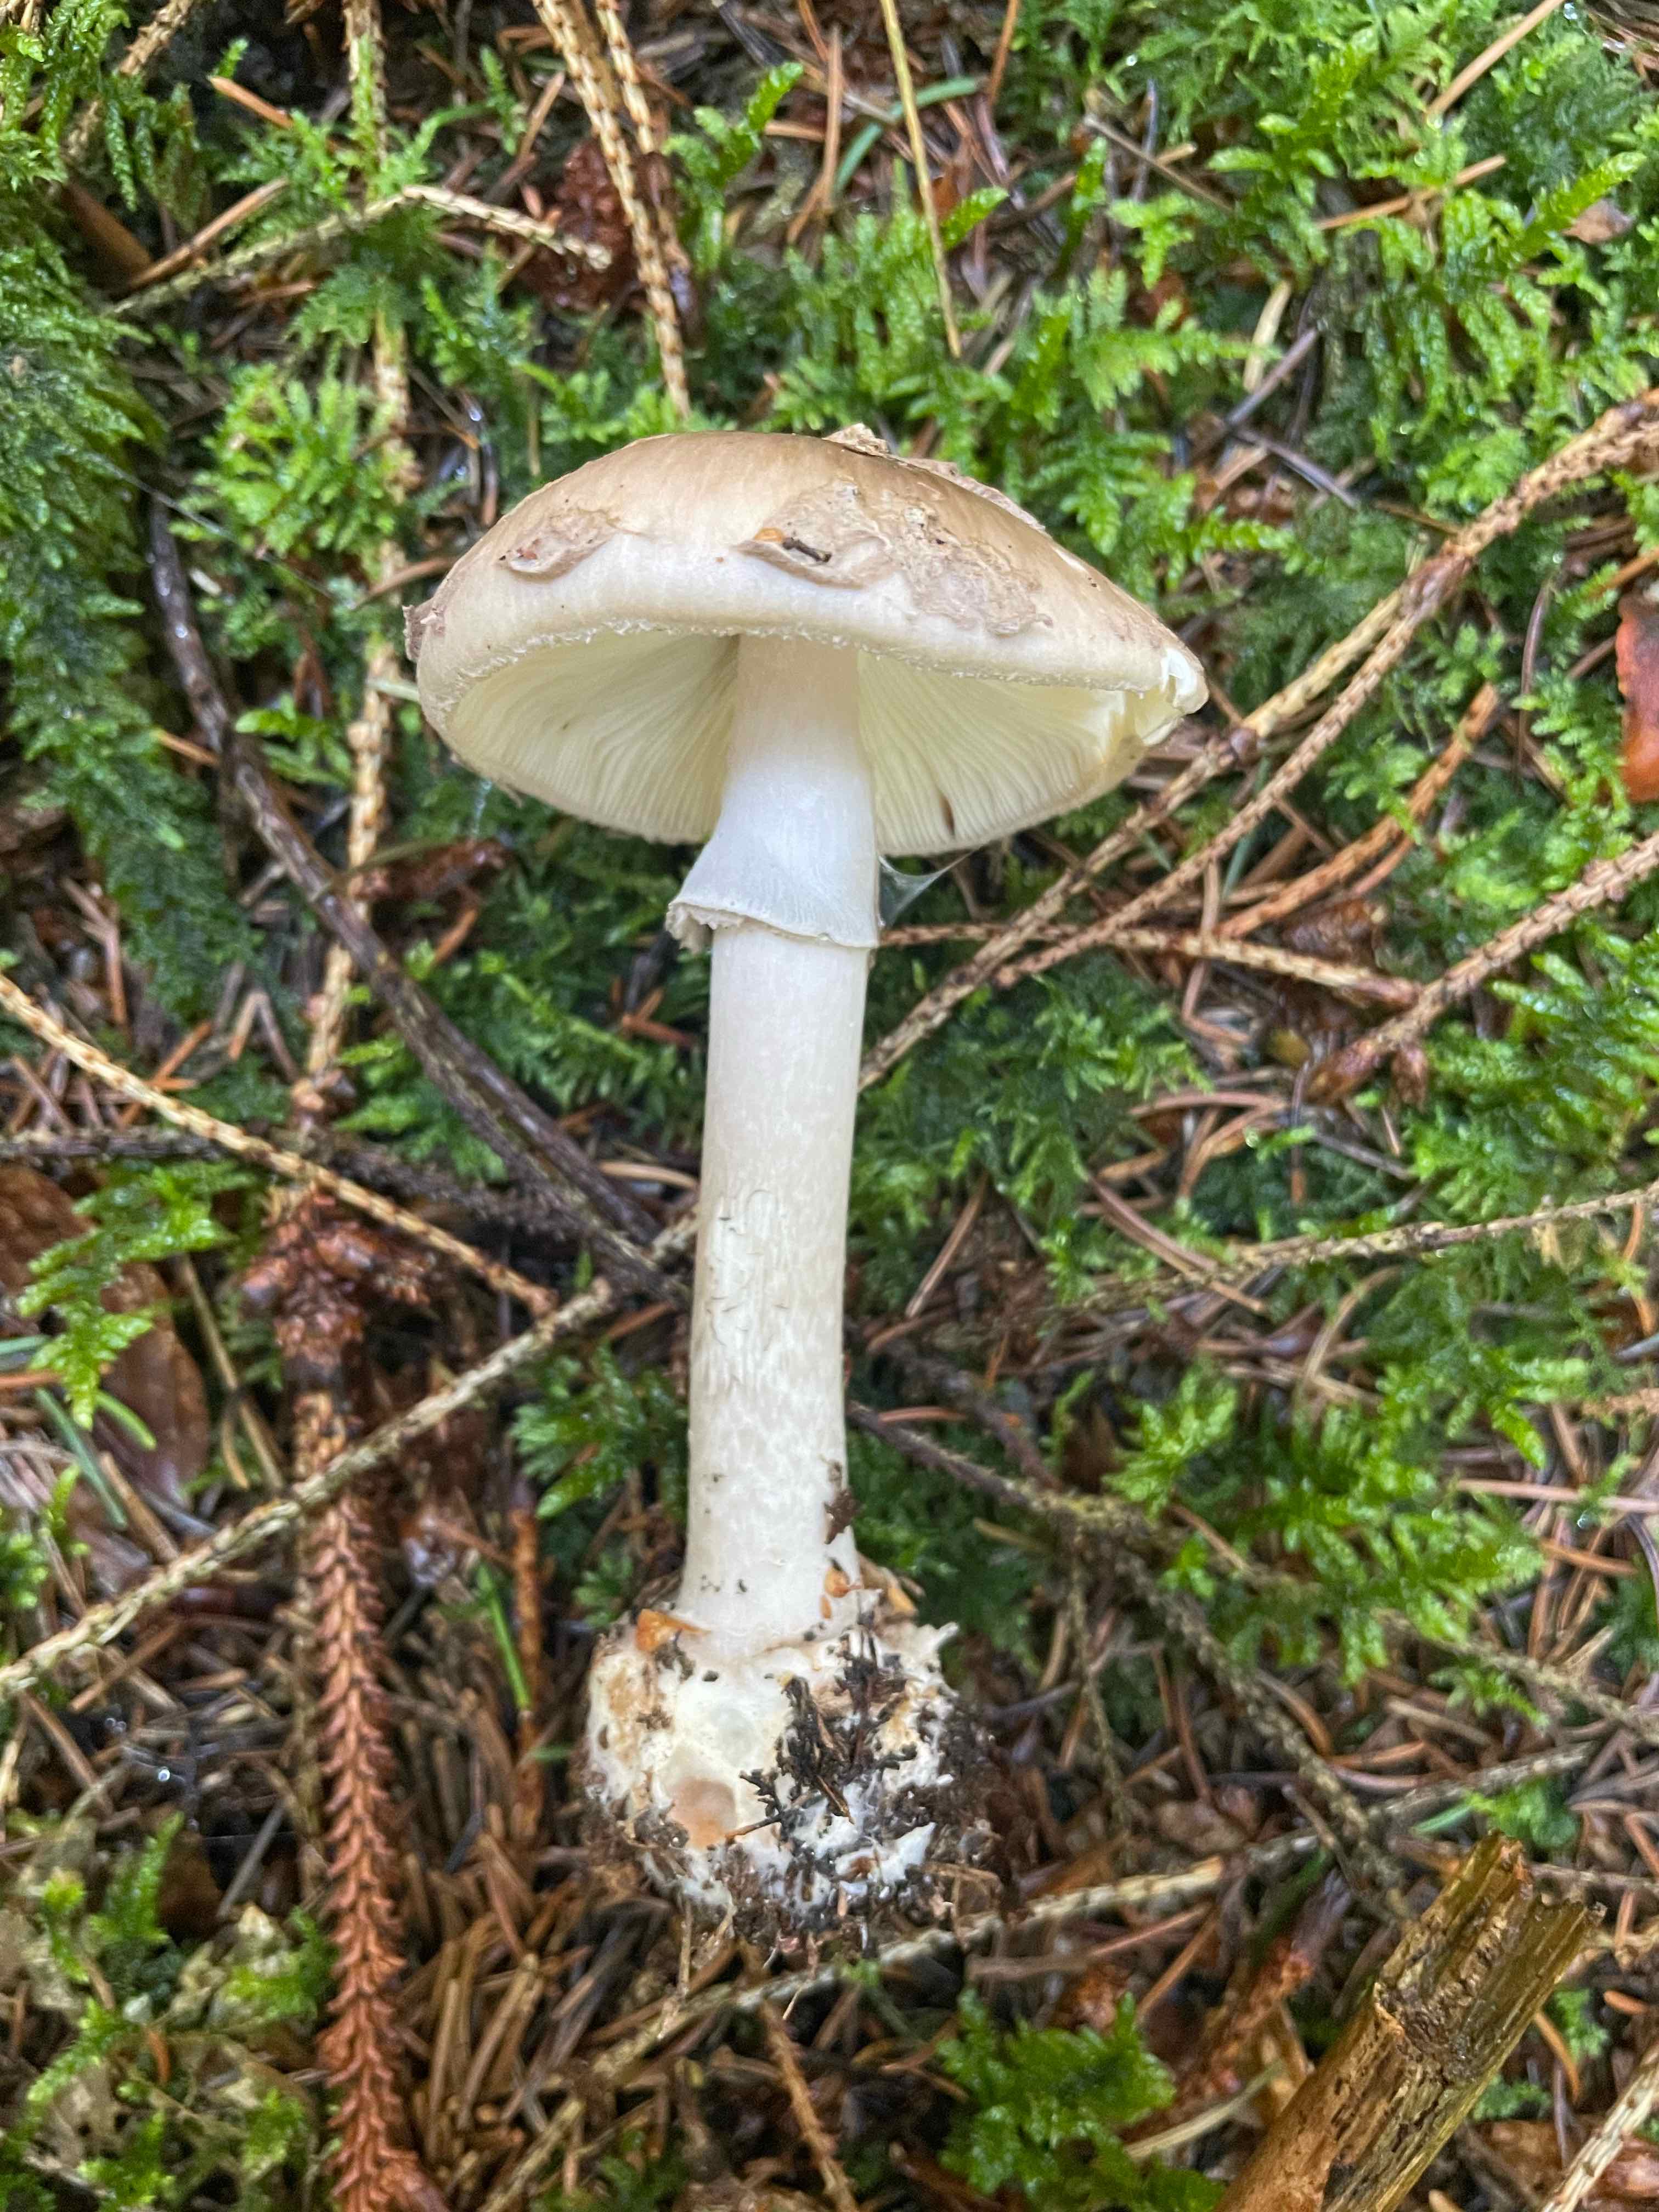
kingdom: Fungi
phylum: Basidiomycota
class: Agaricomycetes
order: Agaricales
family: Amanitaceae
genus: Amanita
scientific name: Amanita porphyria
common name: porfyr-fluesvamp
